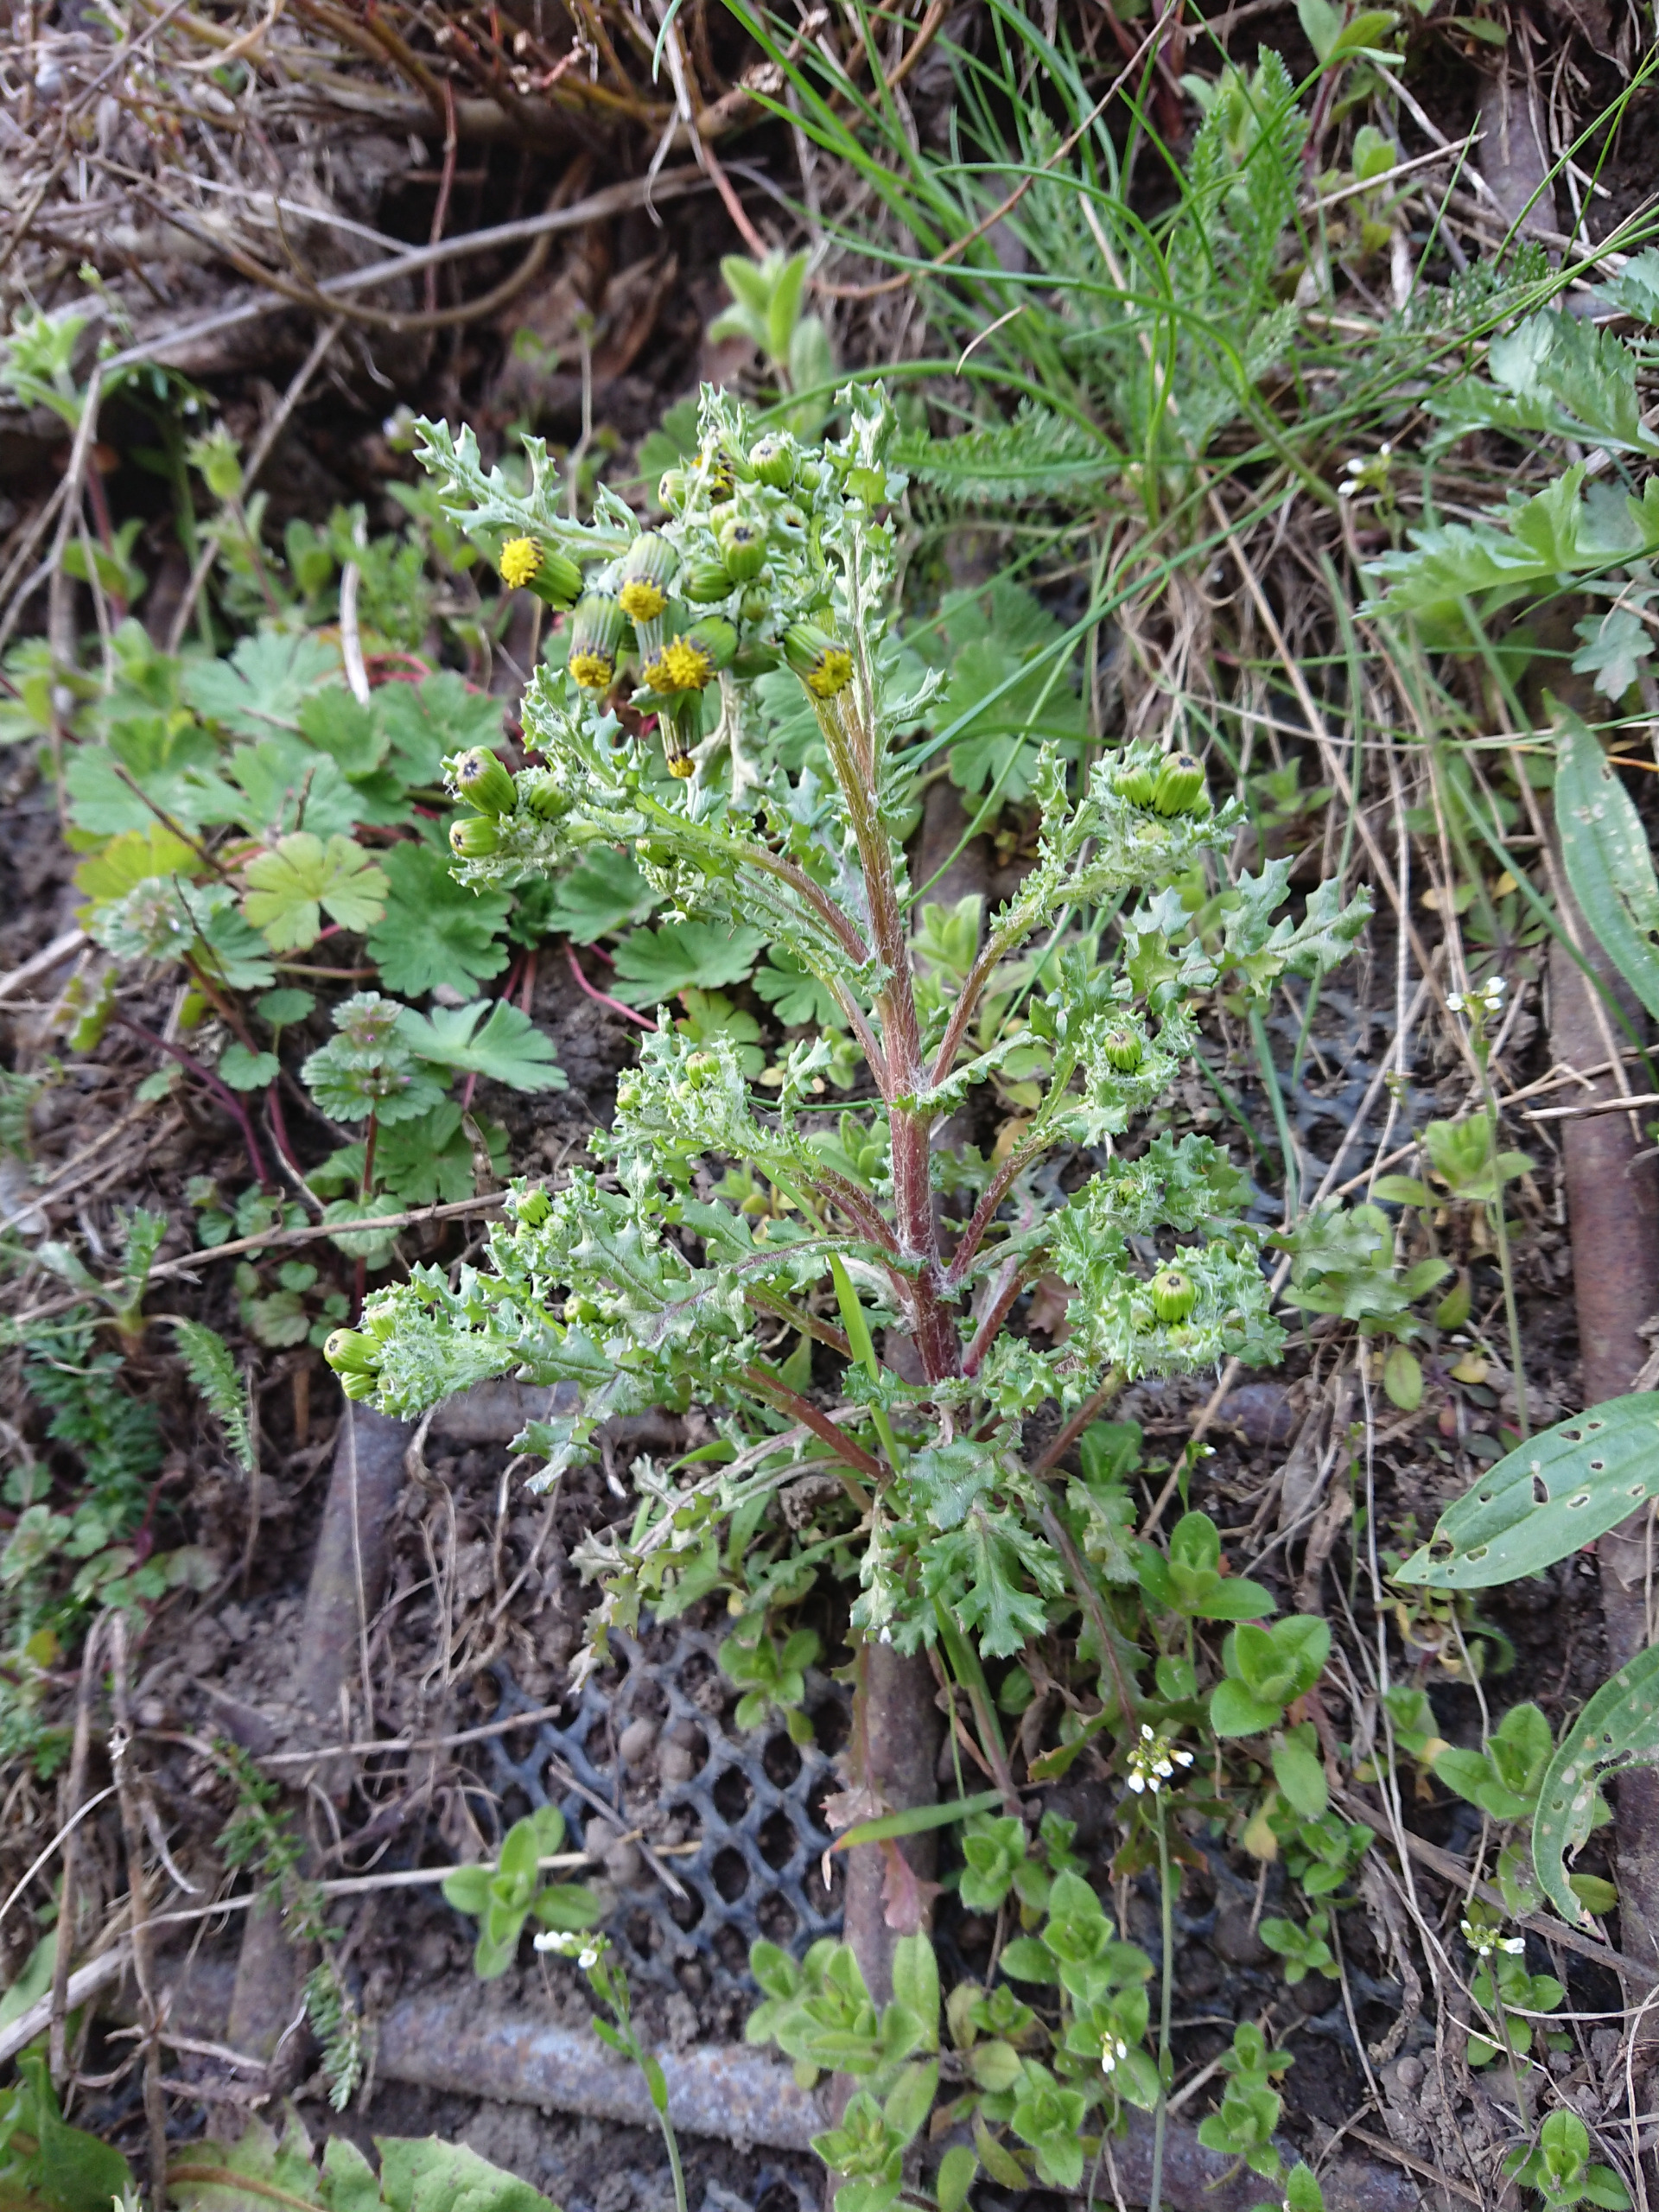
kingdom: Plantae
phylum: Tracheophyta
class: Magnoliopsida
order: Asterales
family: Asteraceae
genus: Senecio
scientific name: Senecio vulgaris
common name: Almindelig brandbæger
